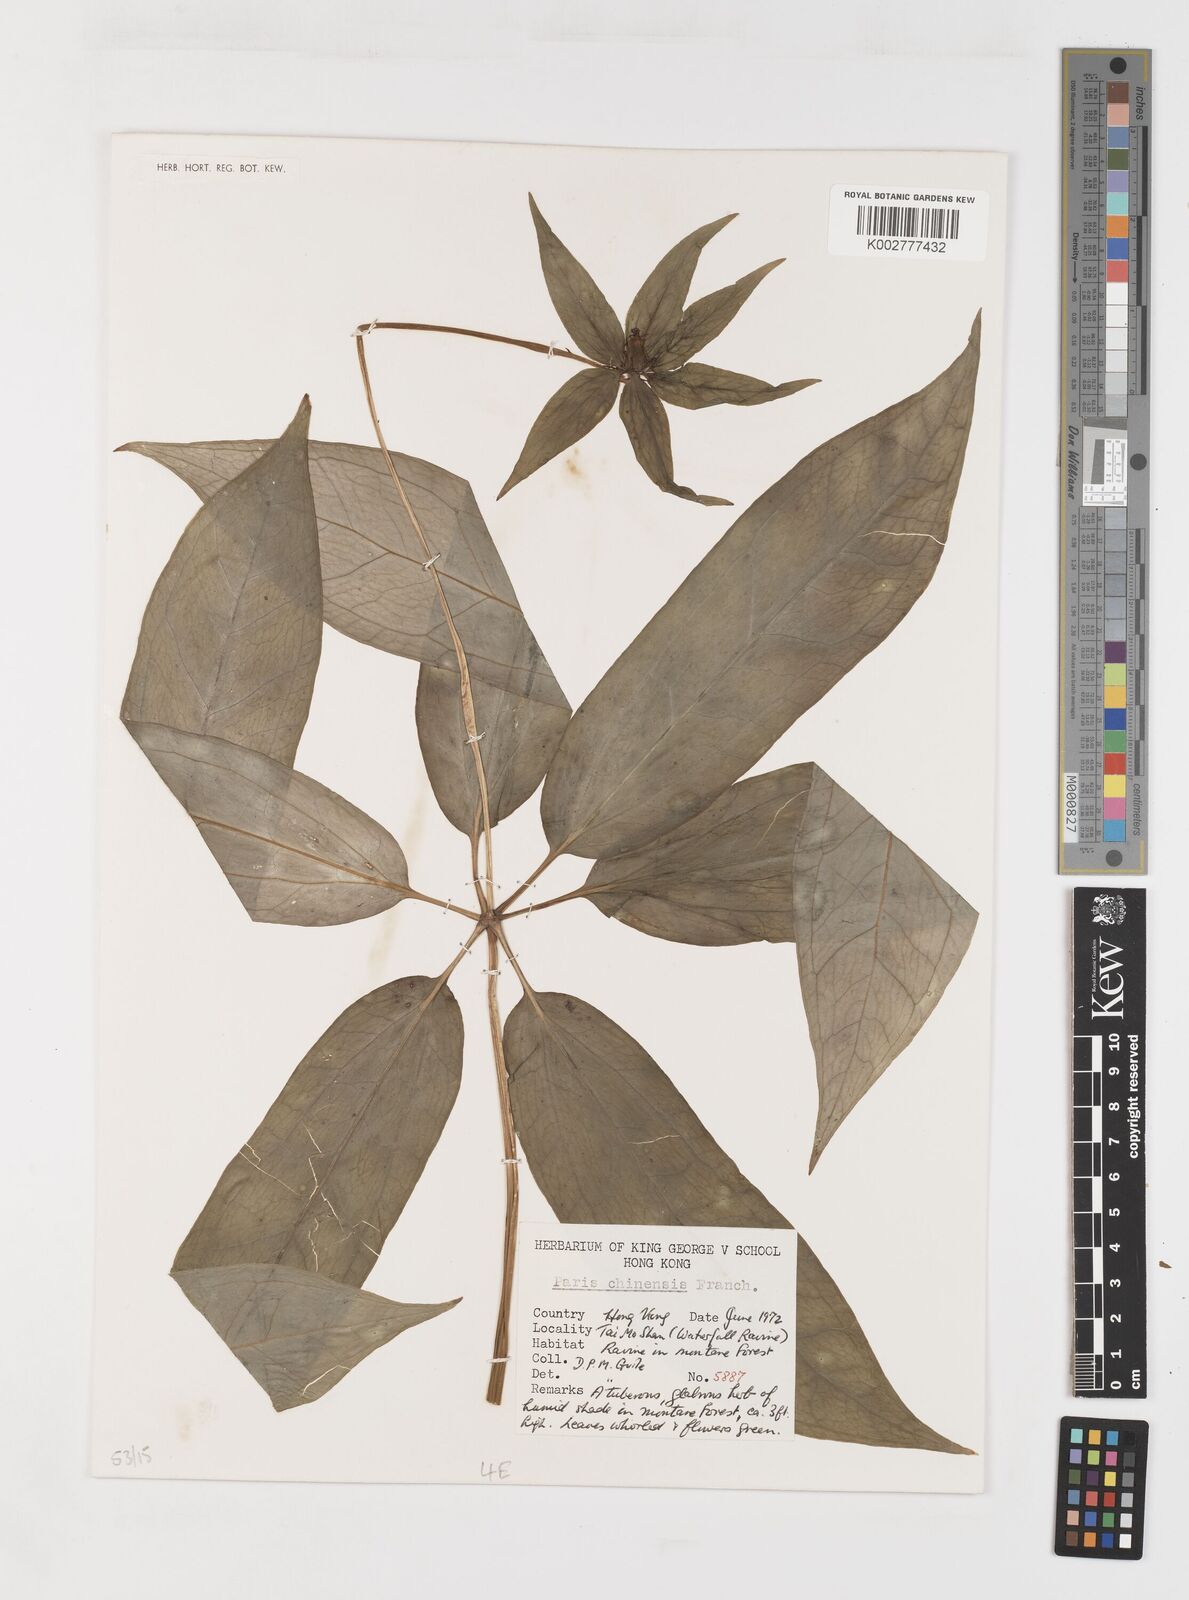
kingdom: Plantae
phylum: Tracheophyta
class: Liliopsida
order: Liliales
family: Melanthiaceae
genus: Paris
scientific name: Paris chinensis
